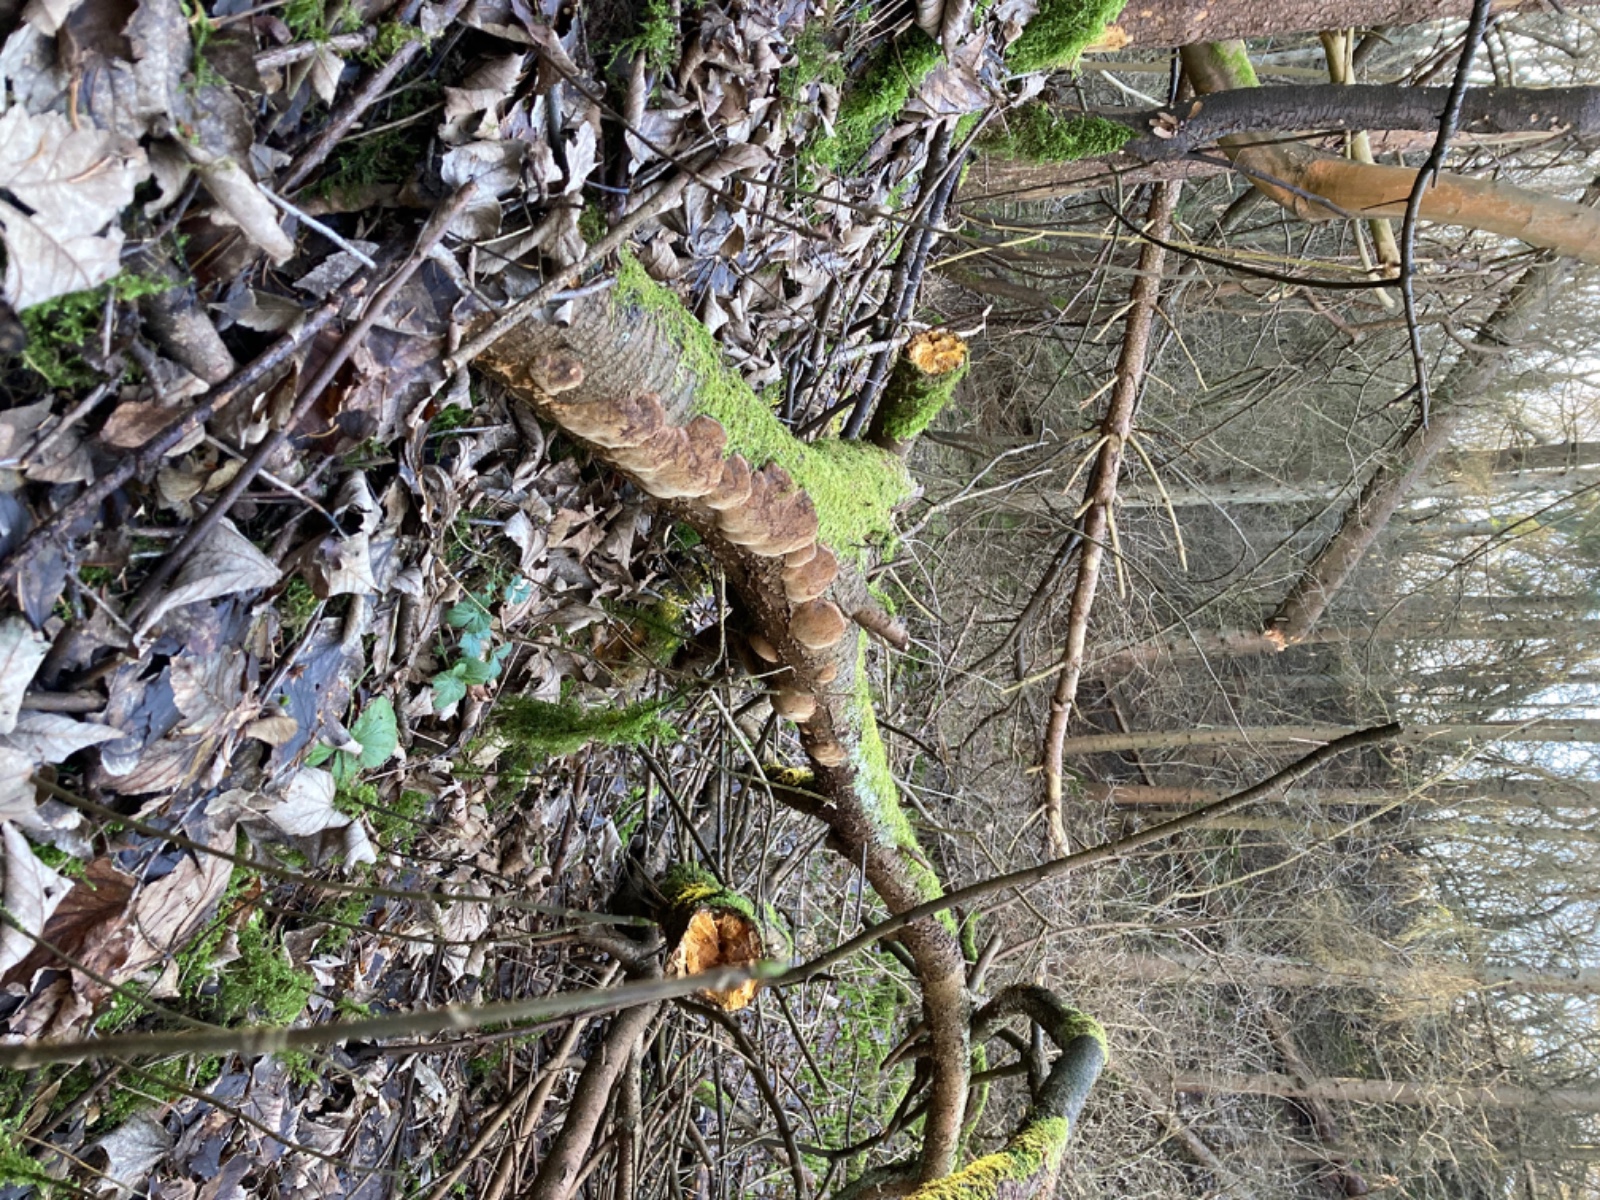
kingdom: Fungi
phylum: Basidiomycota
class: Agaricomycetes
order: Hymenochaetales
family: Hymenochaetaceae
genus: Phellinus
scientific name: Phellinus pomaceus
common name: blomme-ildporesvamp
